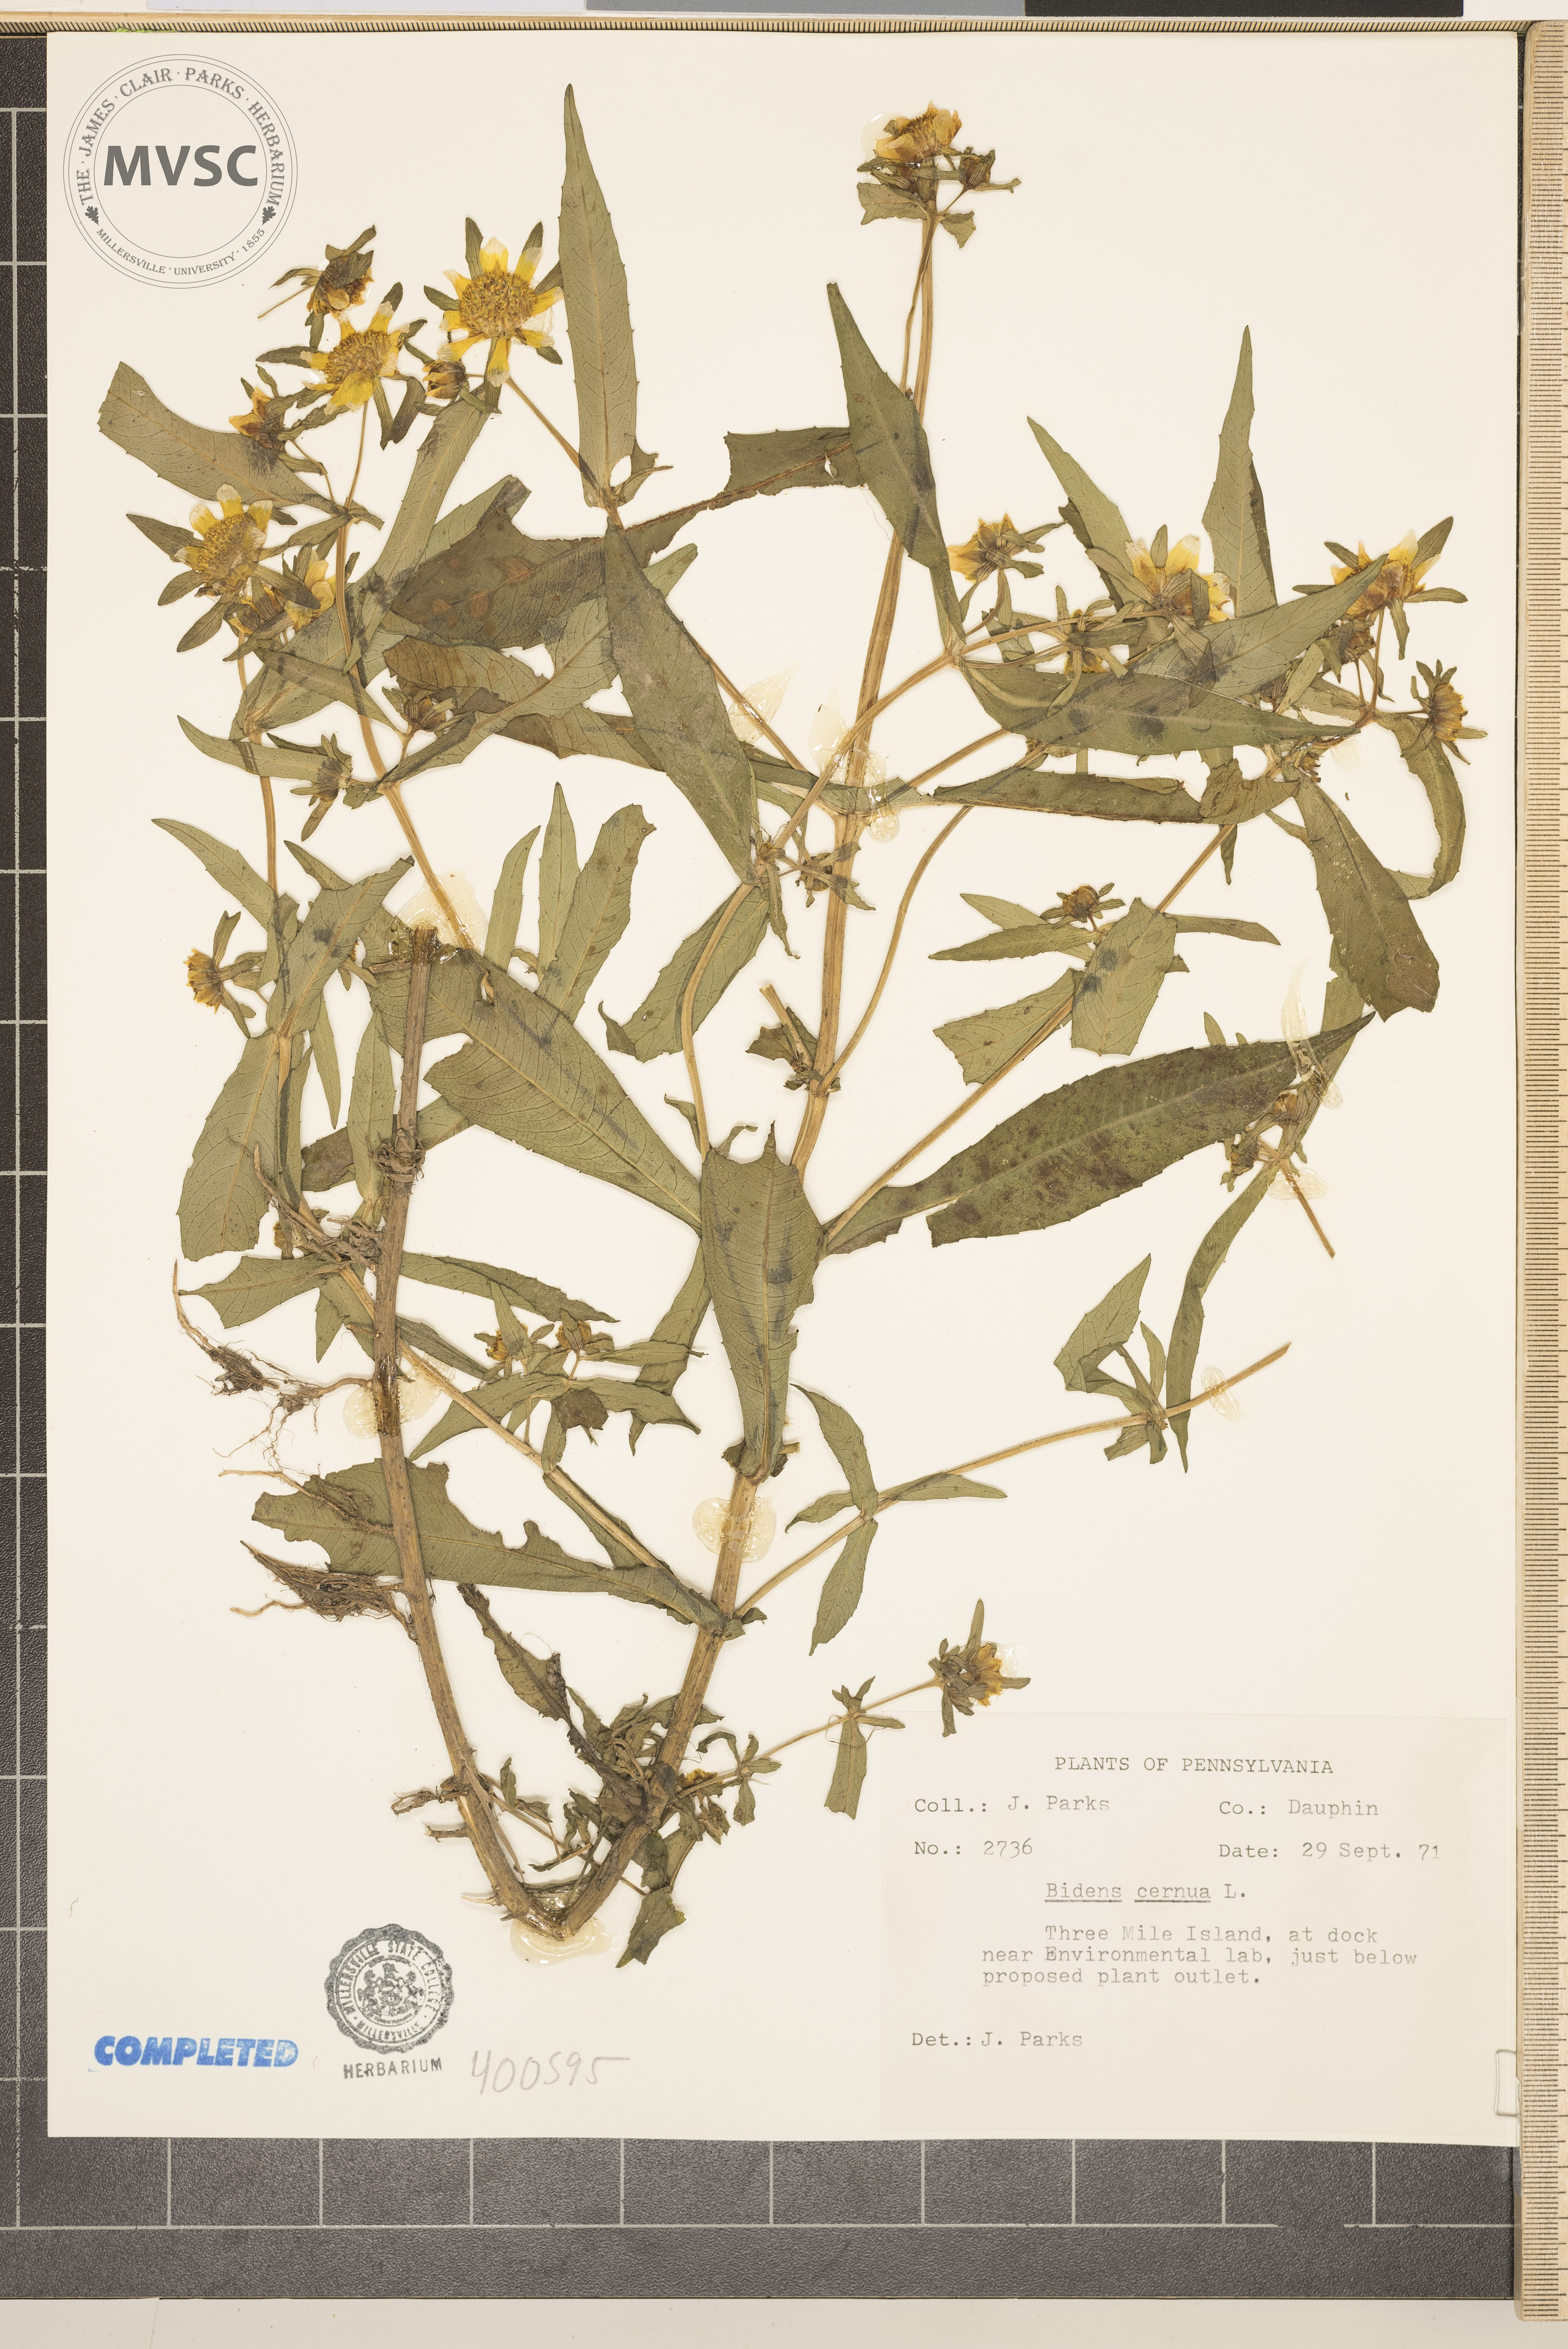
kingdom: Plantae
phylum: Tracheophyta
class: Magnoliopsida
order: Asterales
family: Asteraceae
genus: Bidens
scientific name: Bidens cernua
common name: Nodding bur-marigold
